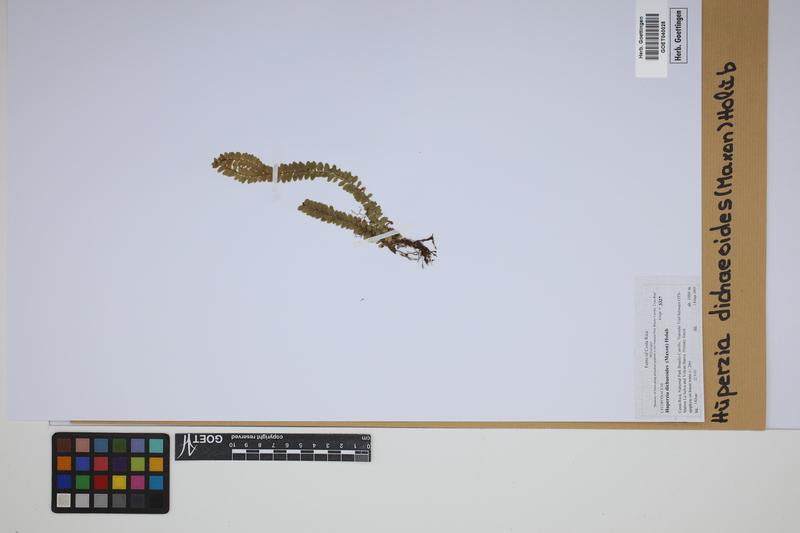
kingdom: Plantae
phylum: Tracheophyta
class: Lycopodiopsida
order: Lycopodiales
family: Lycopodiaceae
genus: Phlegmariurus
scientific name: Phlegmariurus dichaeoides
